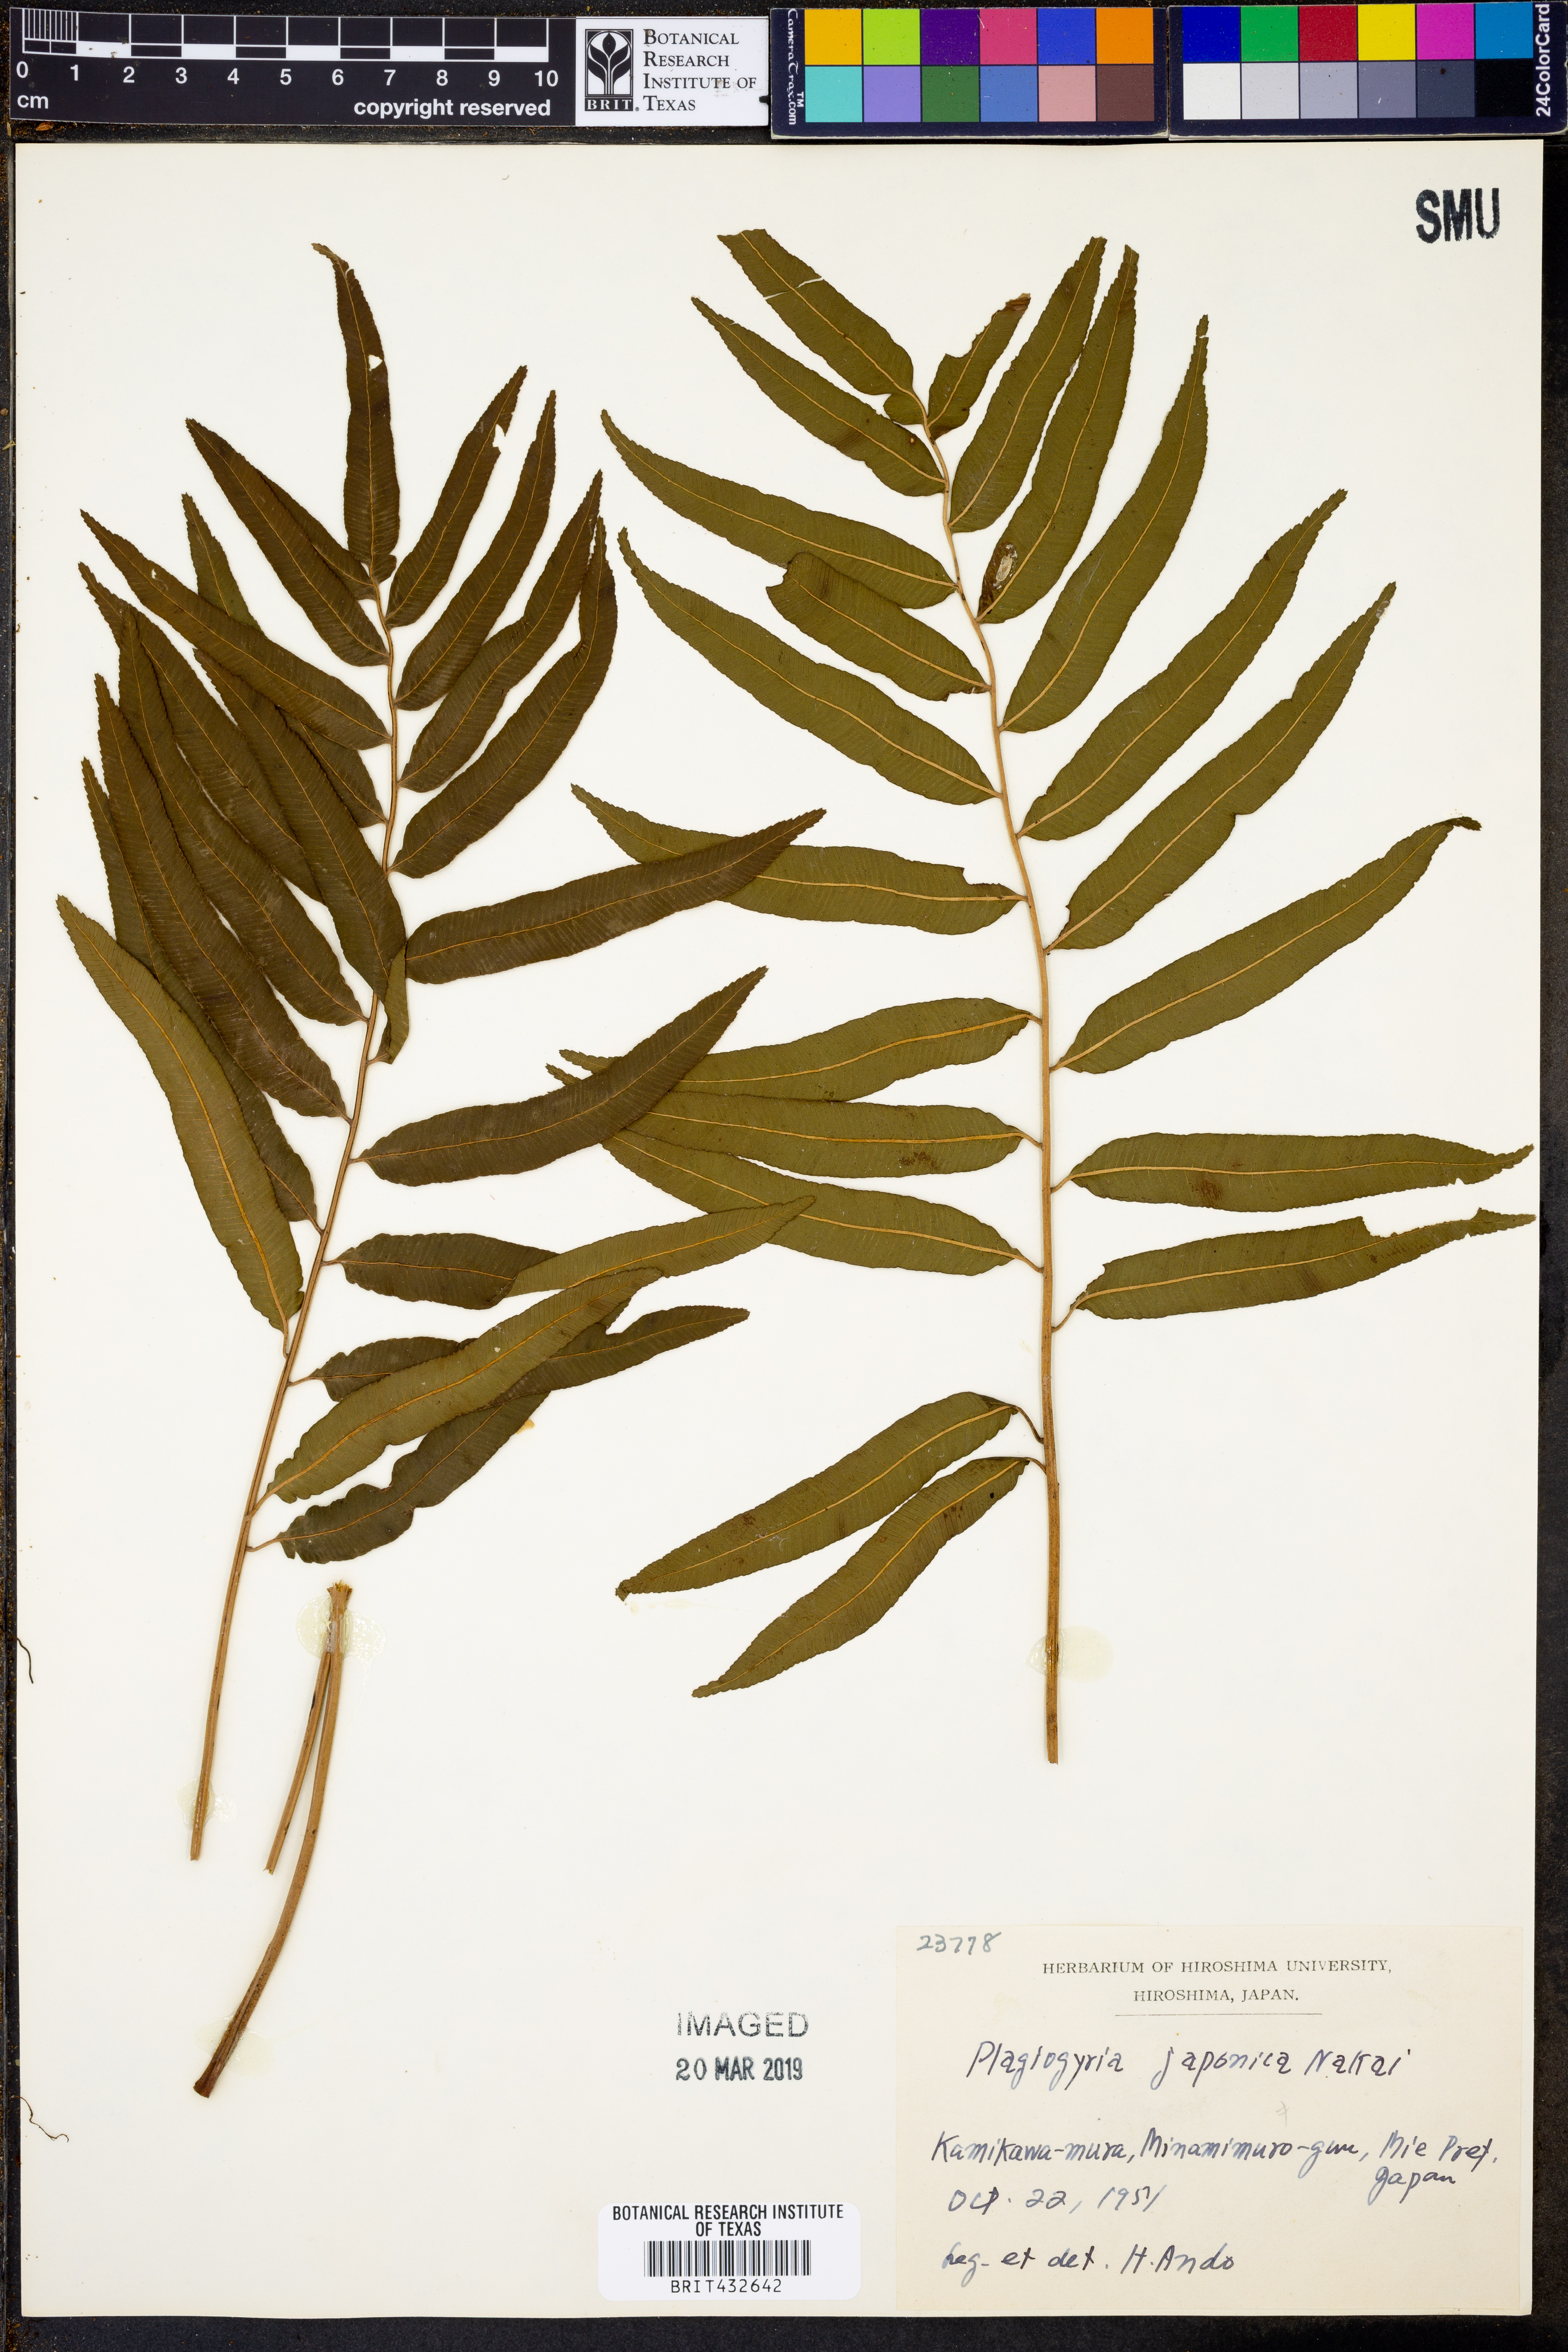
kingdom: Plantae
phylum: Tracheophyta
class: Polypodiopsida
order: Cyatheales
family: Plagiogyriaceae
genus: Plagiogyria
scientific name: Plagiogyria japonica
